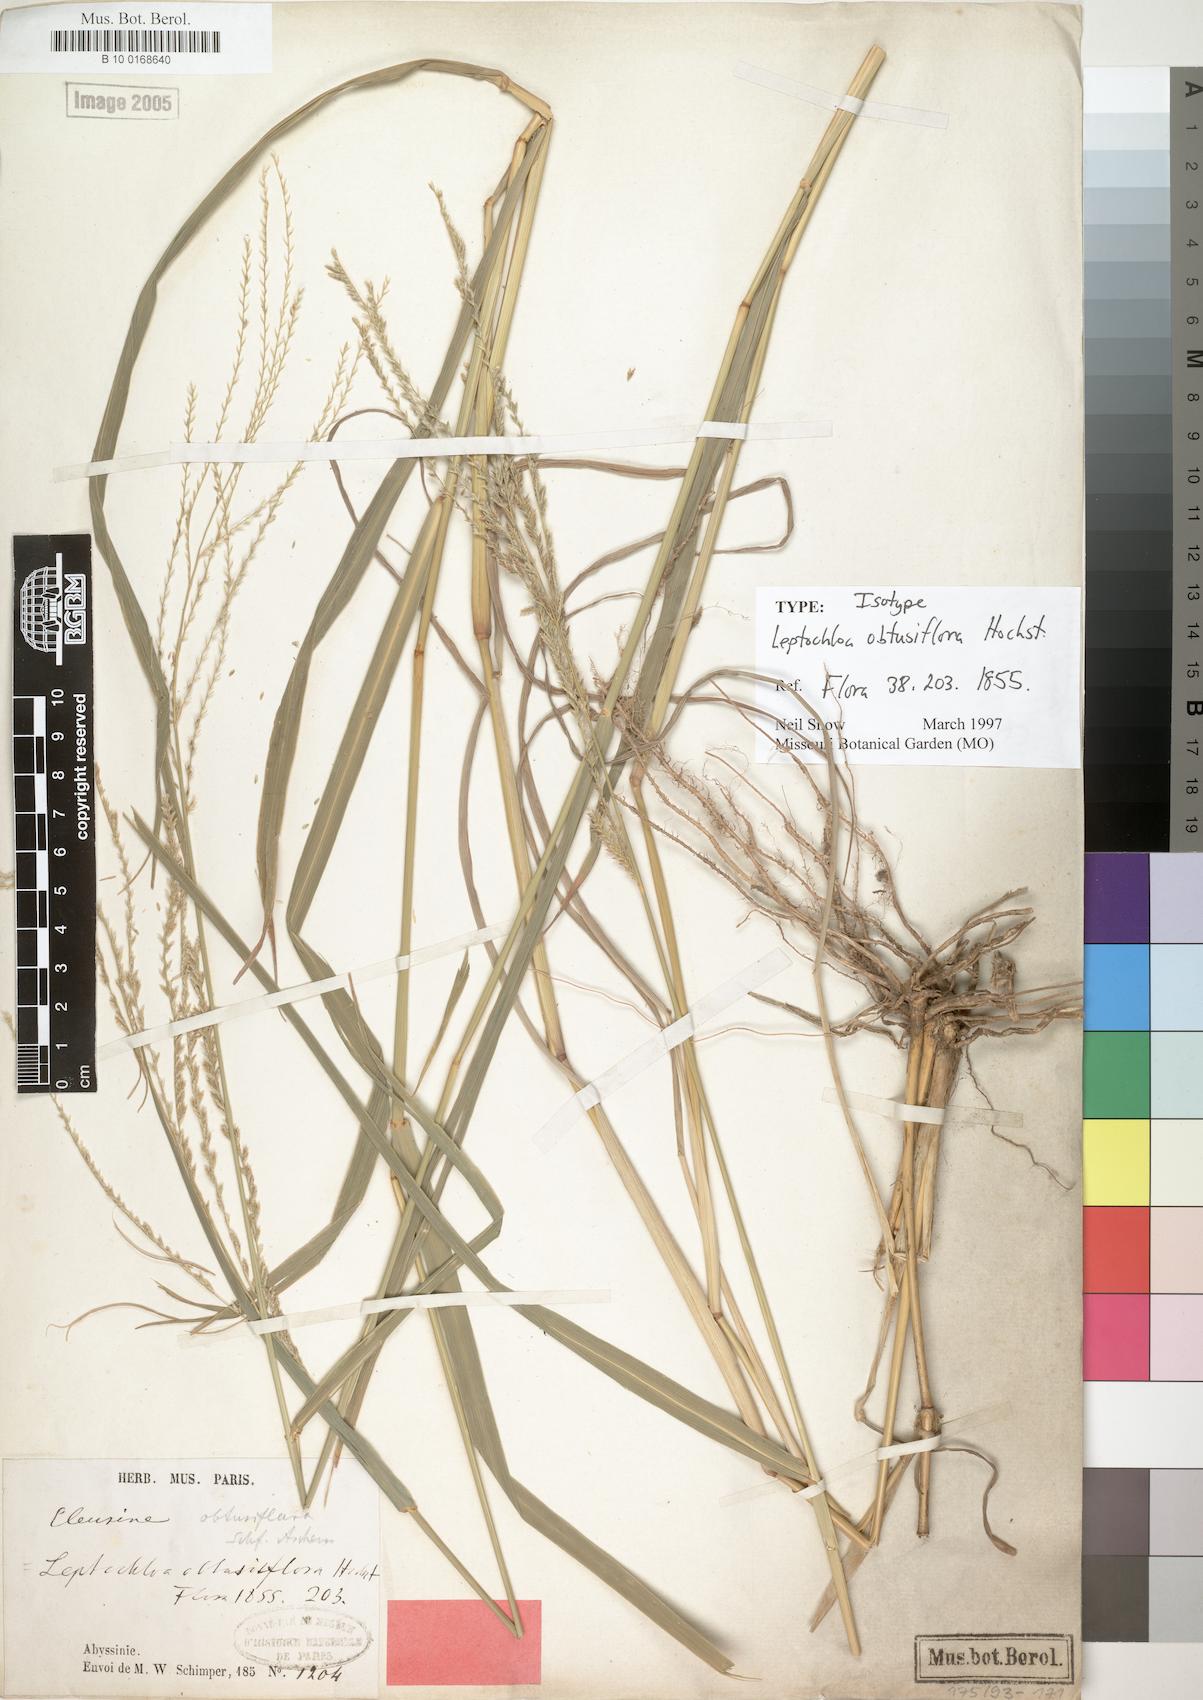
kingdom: Plantae
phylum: Tracheophyta
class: Liliopsida
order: Poales
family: Poaceae
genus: Disakisperma
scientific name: Disakisperma obtusiflorum
